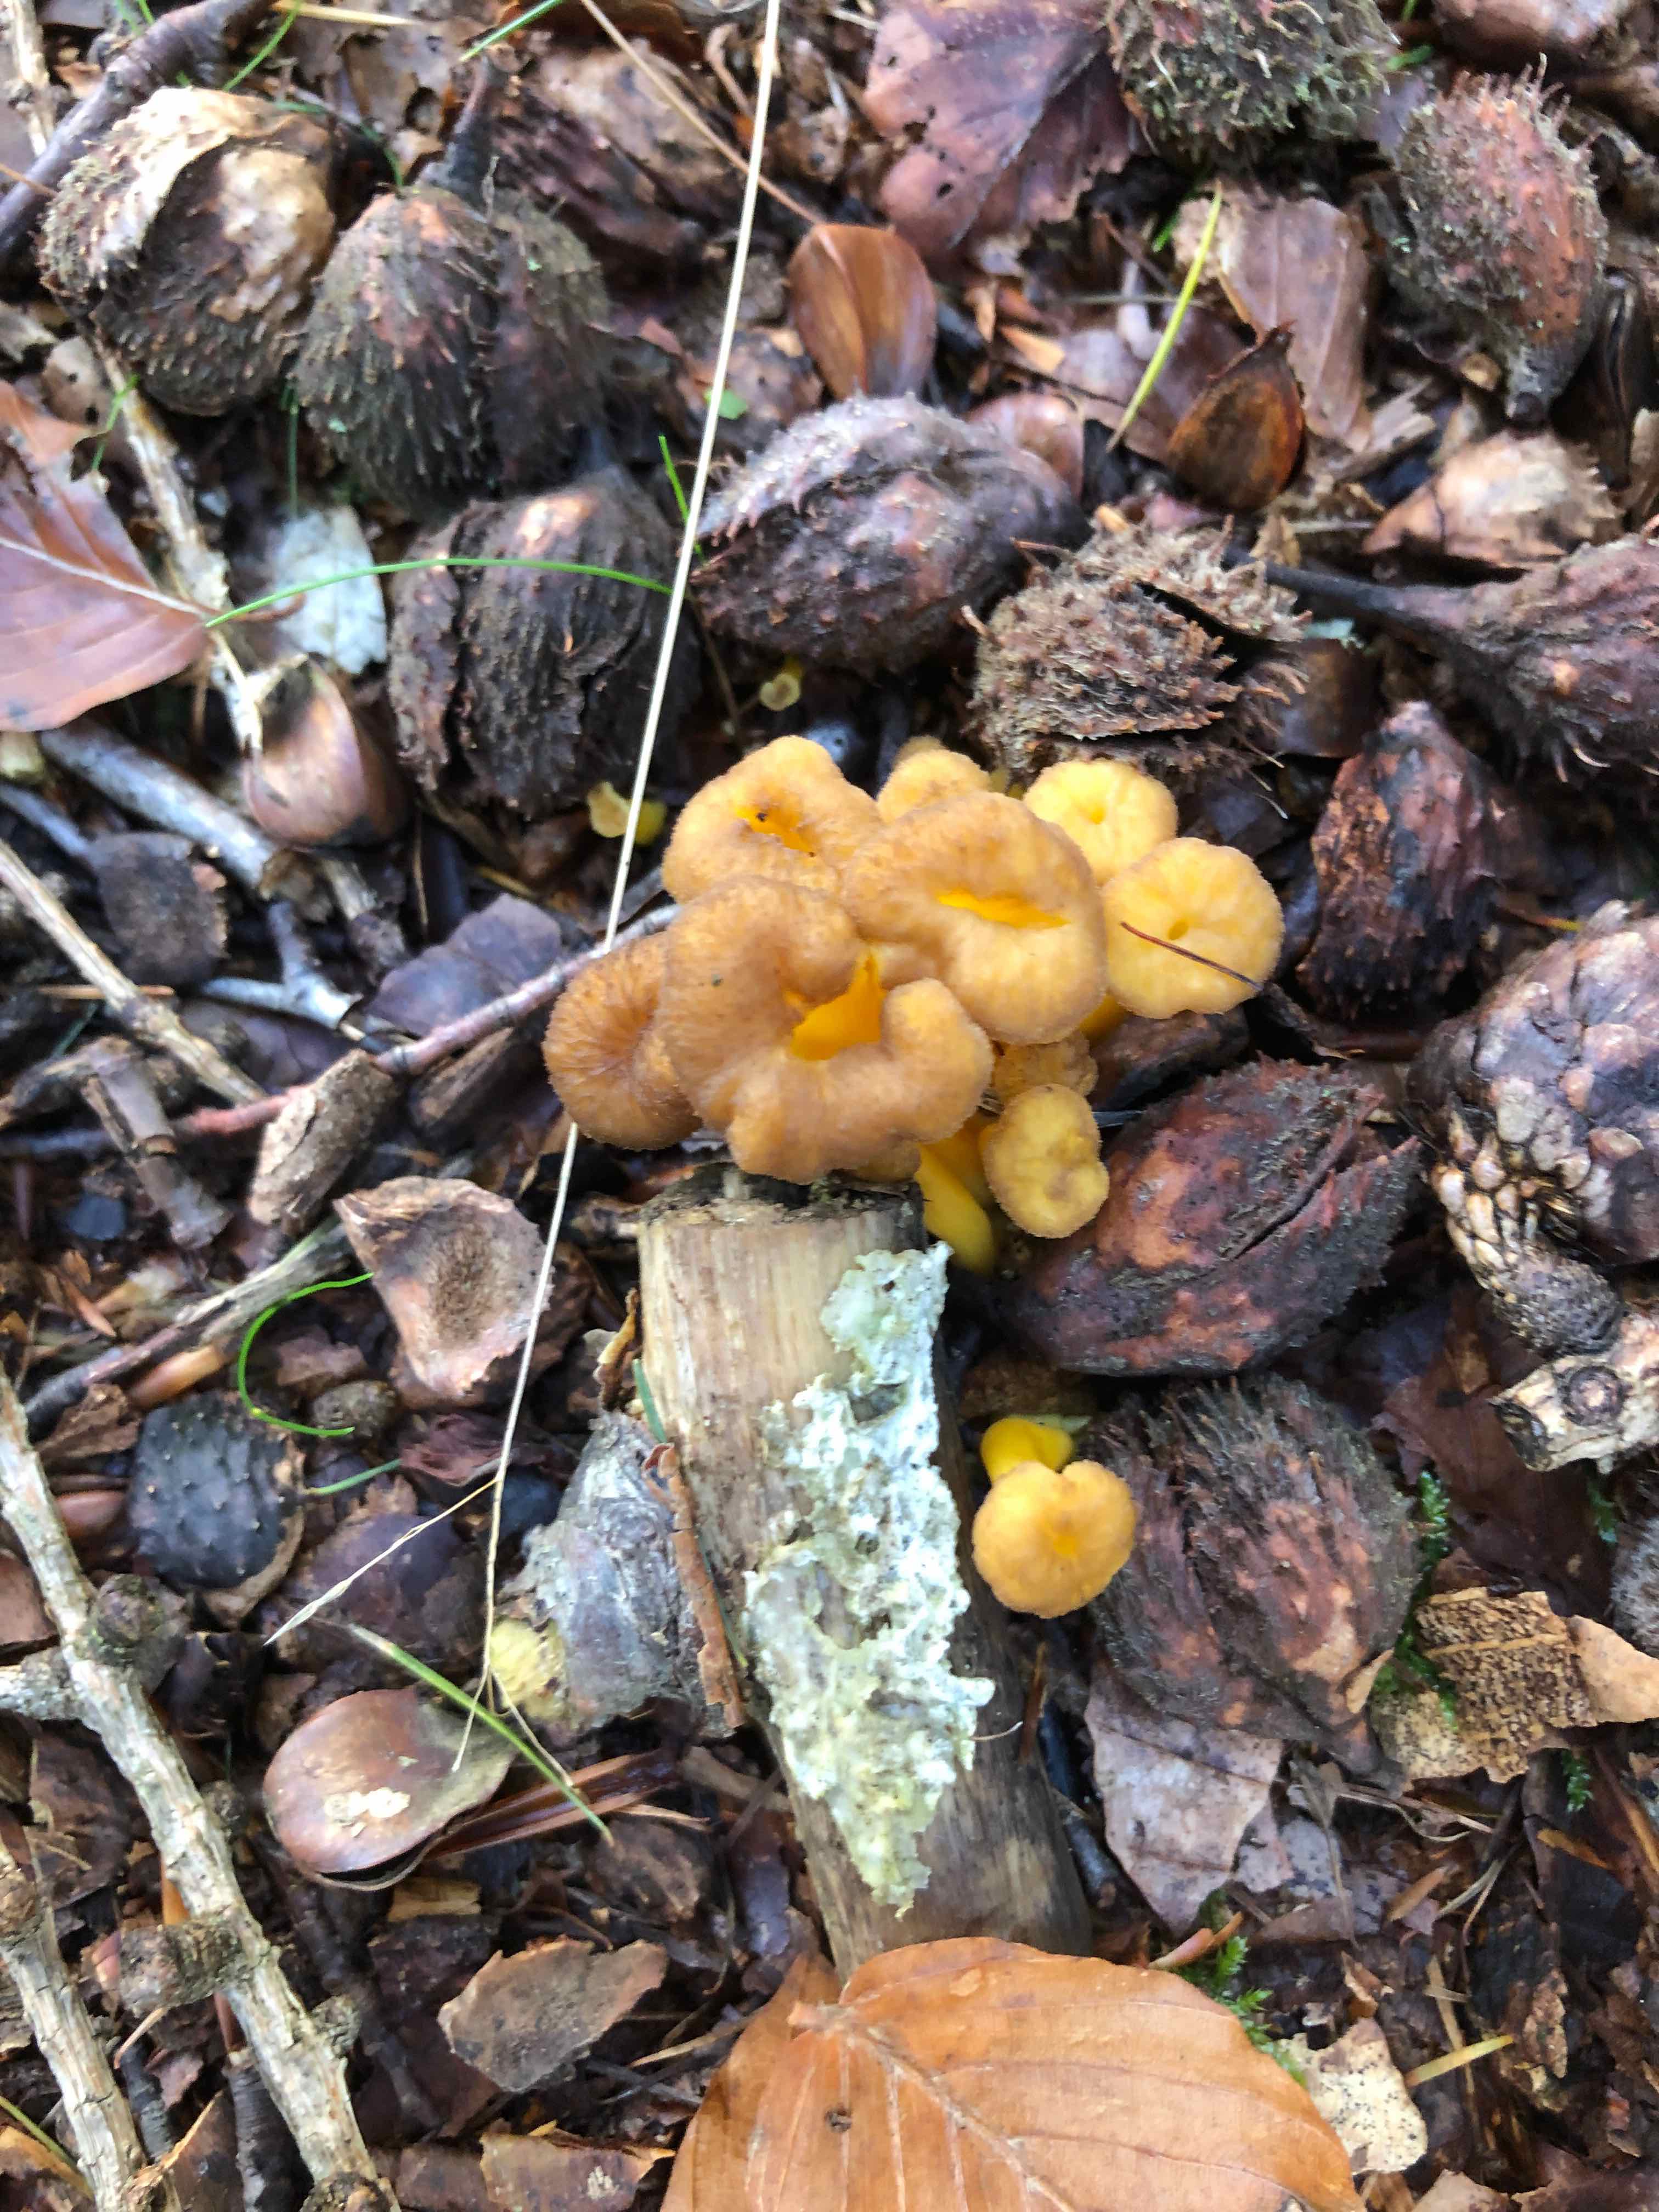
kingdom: Fungi
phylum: Basidiomycota
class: Agaricomycetes
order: Cantharellales
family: Hydnaceae
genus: Craterellus
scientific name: Craterellus tubaeformis
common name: tragt-kantarel
